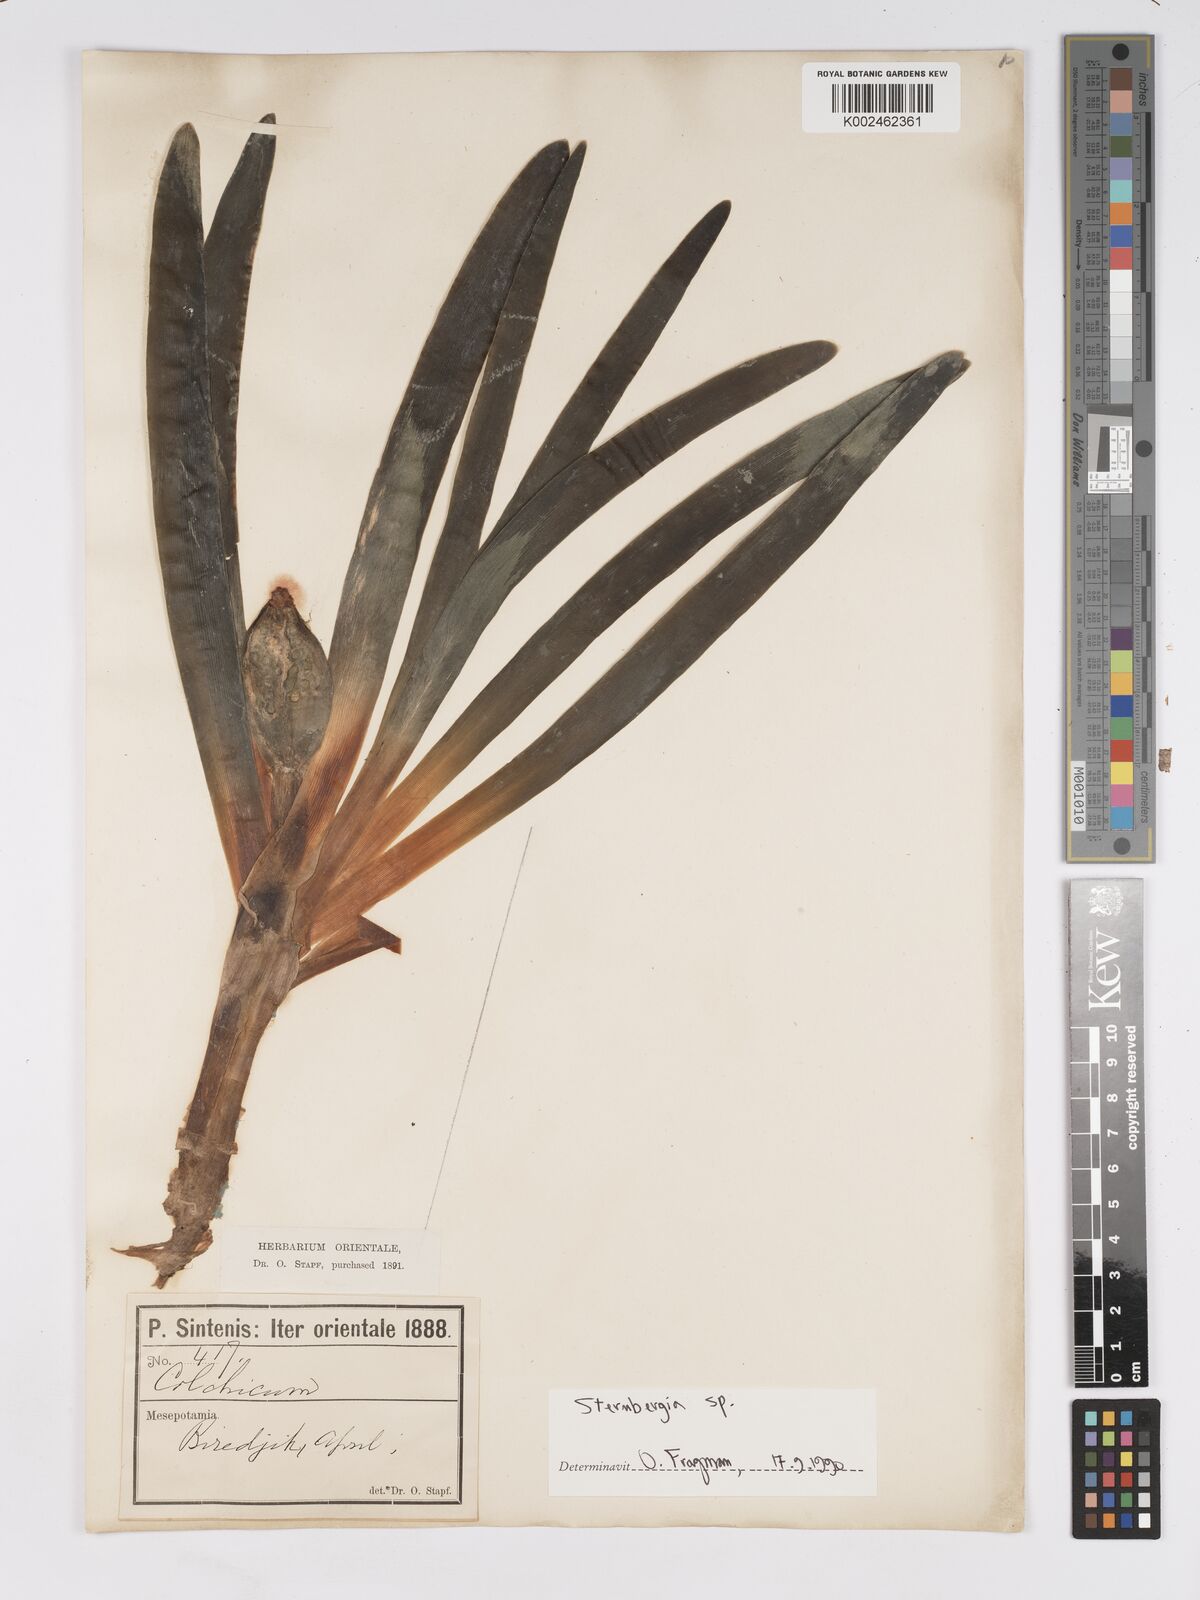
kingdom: Plantae
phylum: Tracheophyta
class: Liliopsida
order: Asparagales
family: Amaryllidaceae
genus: Sternbergia
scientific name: Sternbergia
